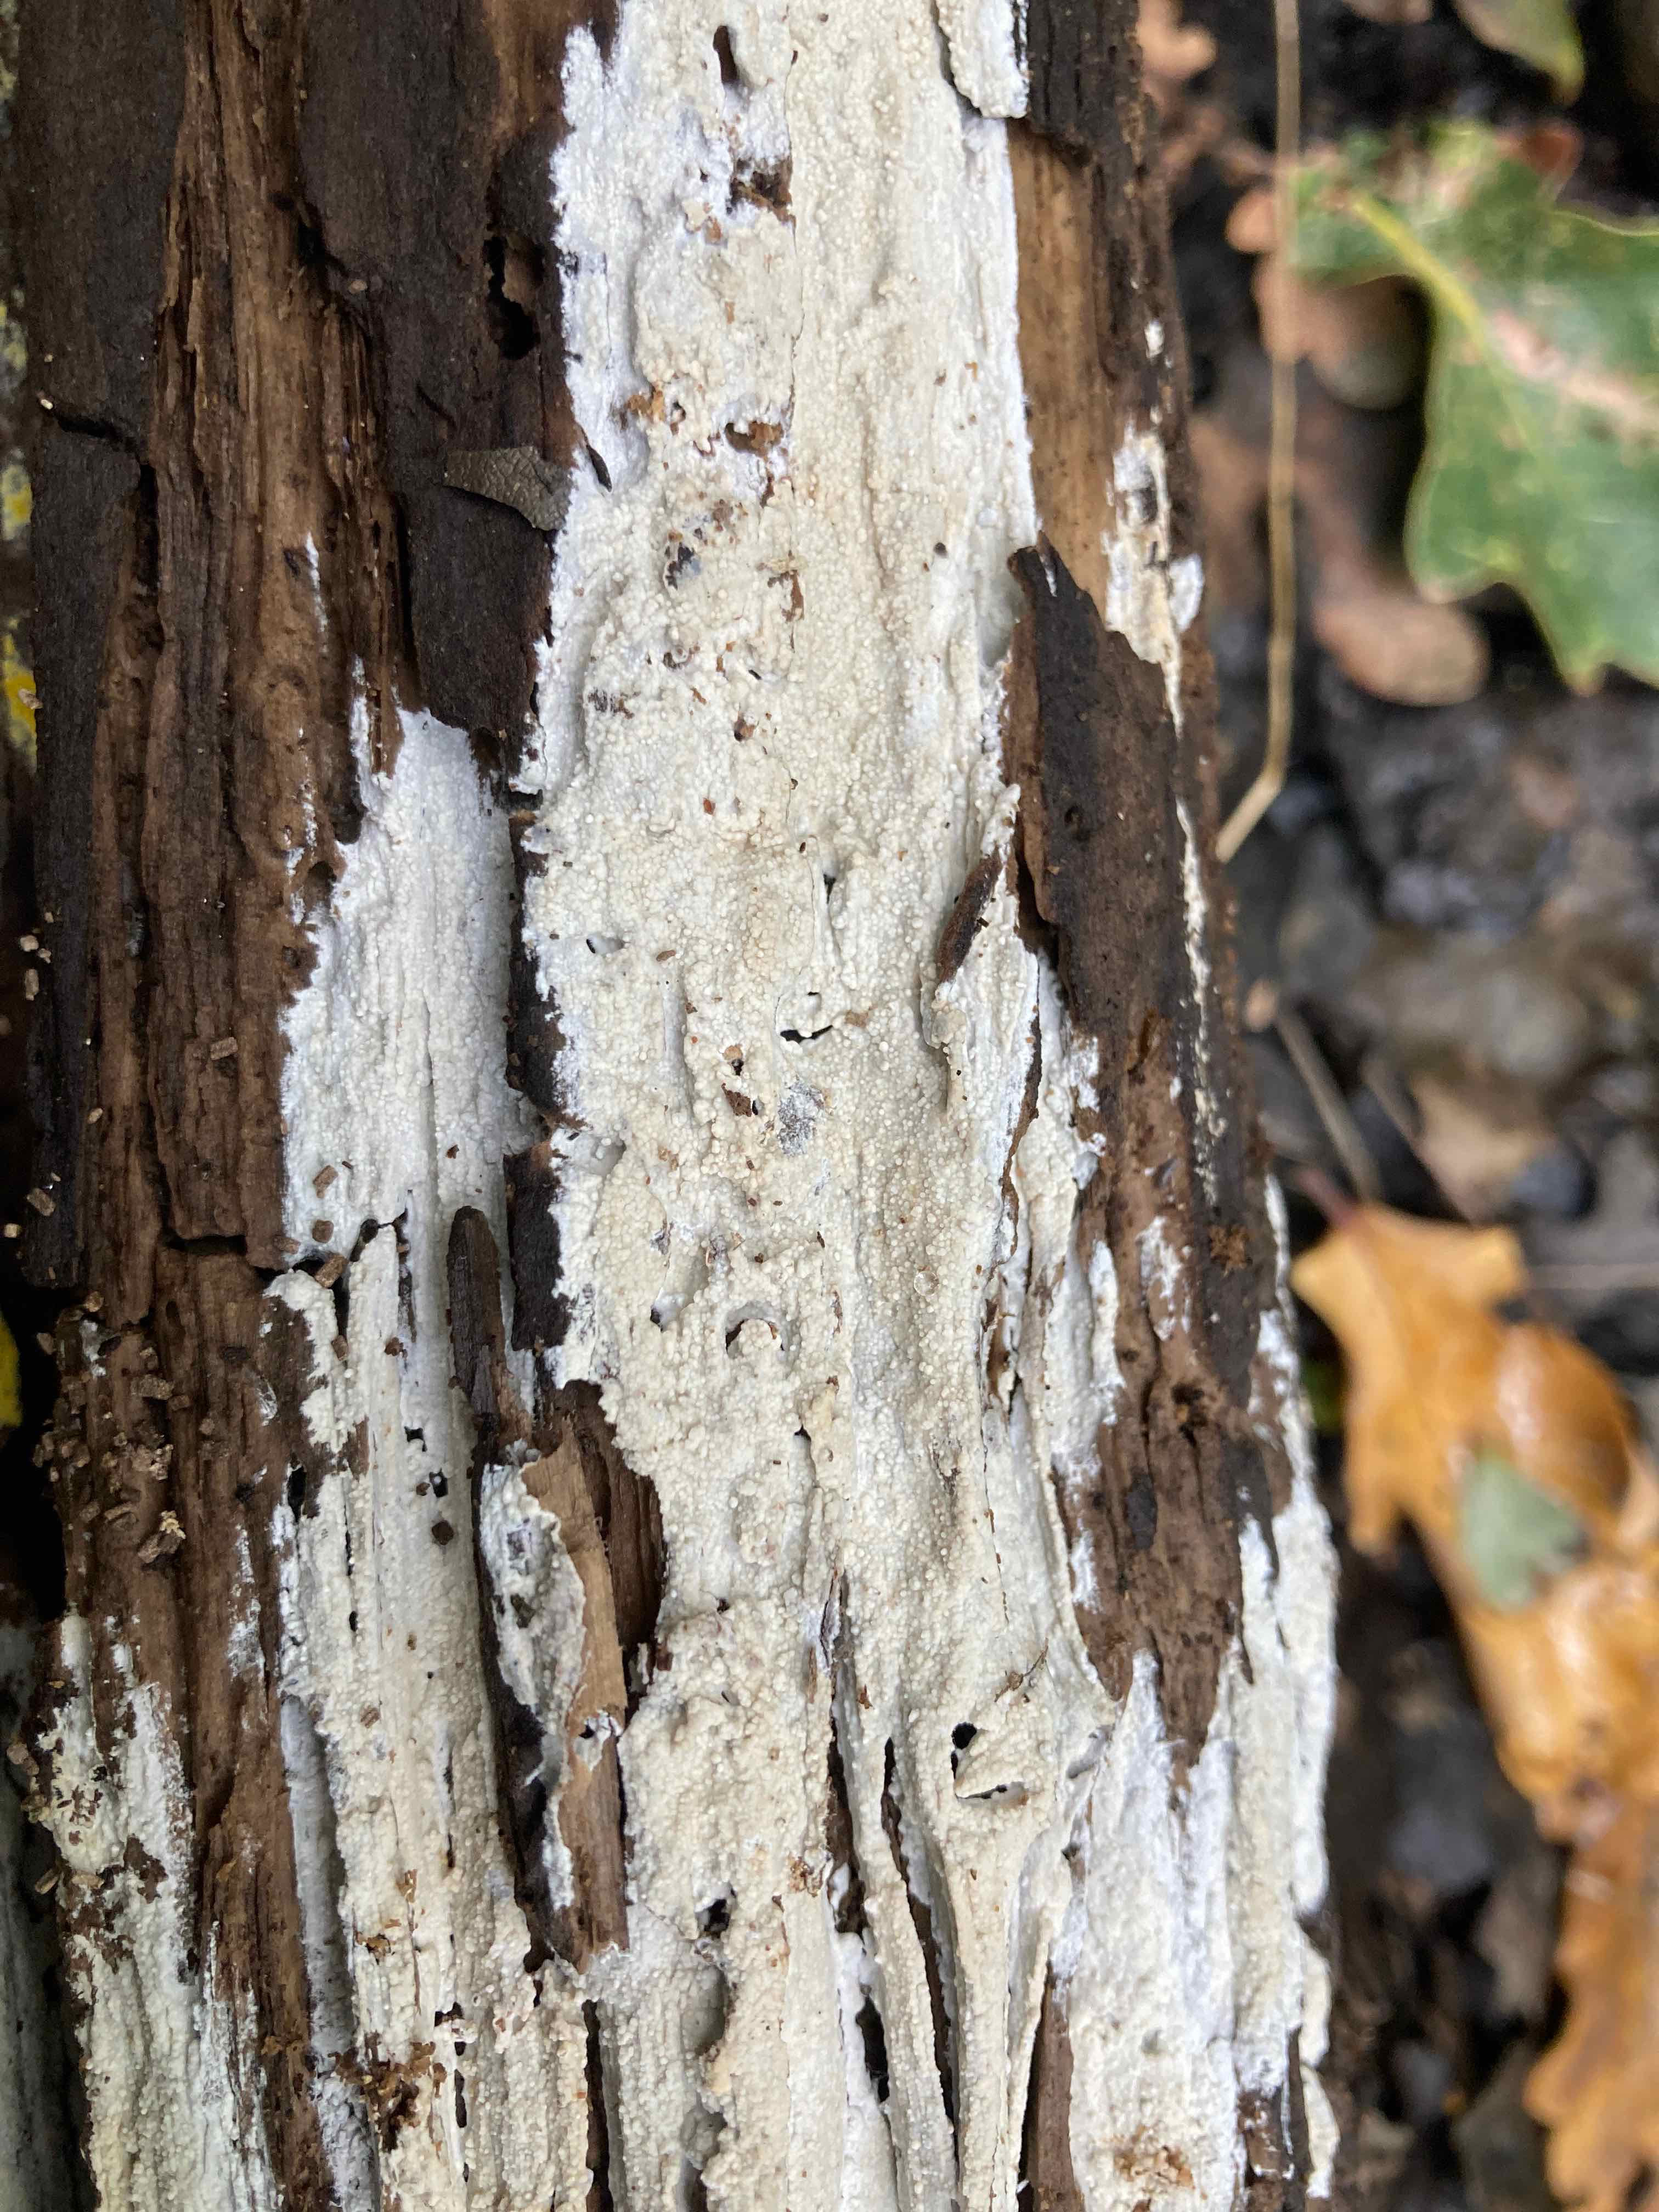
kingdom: Fungi
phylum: Basidiomycota
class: Agaricomycetes
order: Polyporales
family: Meruliaceae
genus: Phlebiodontia
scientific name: Phlebiodontia subochracea
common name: svovl-åresvamp
